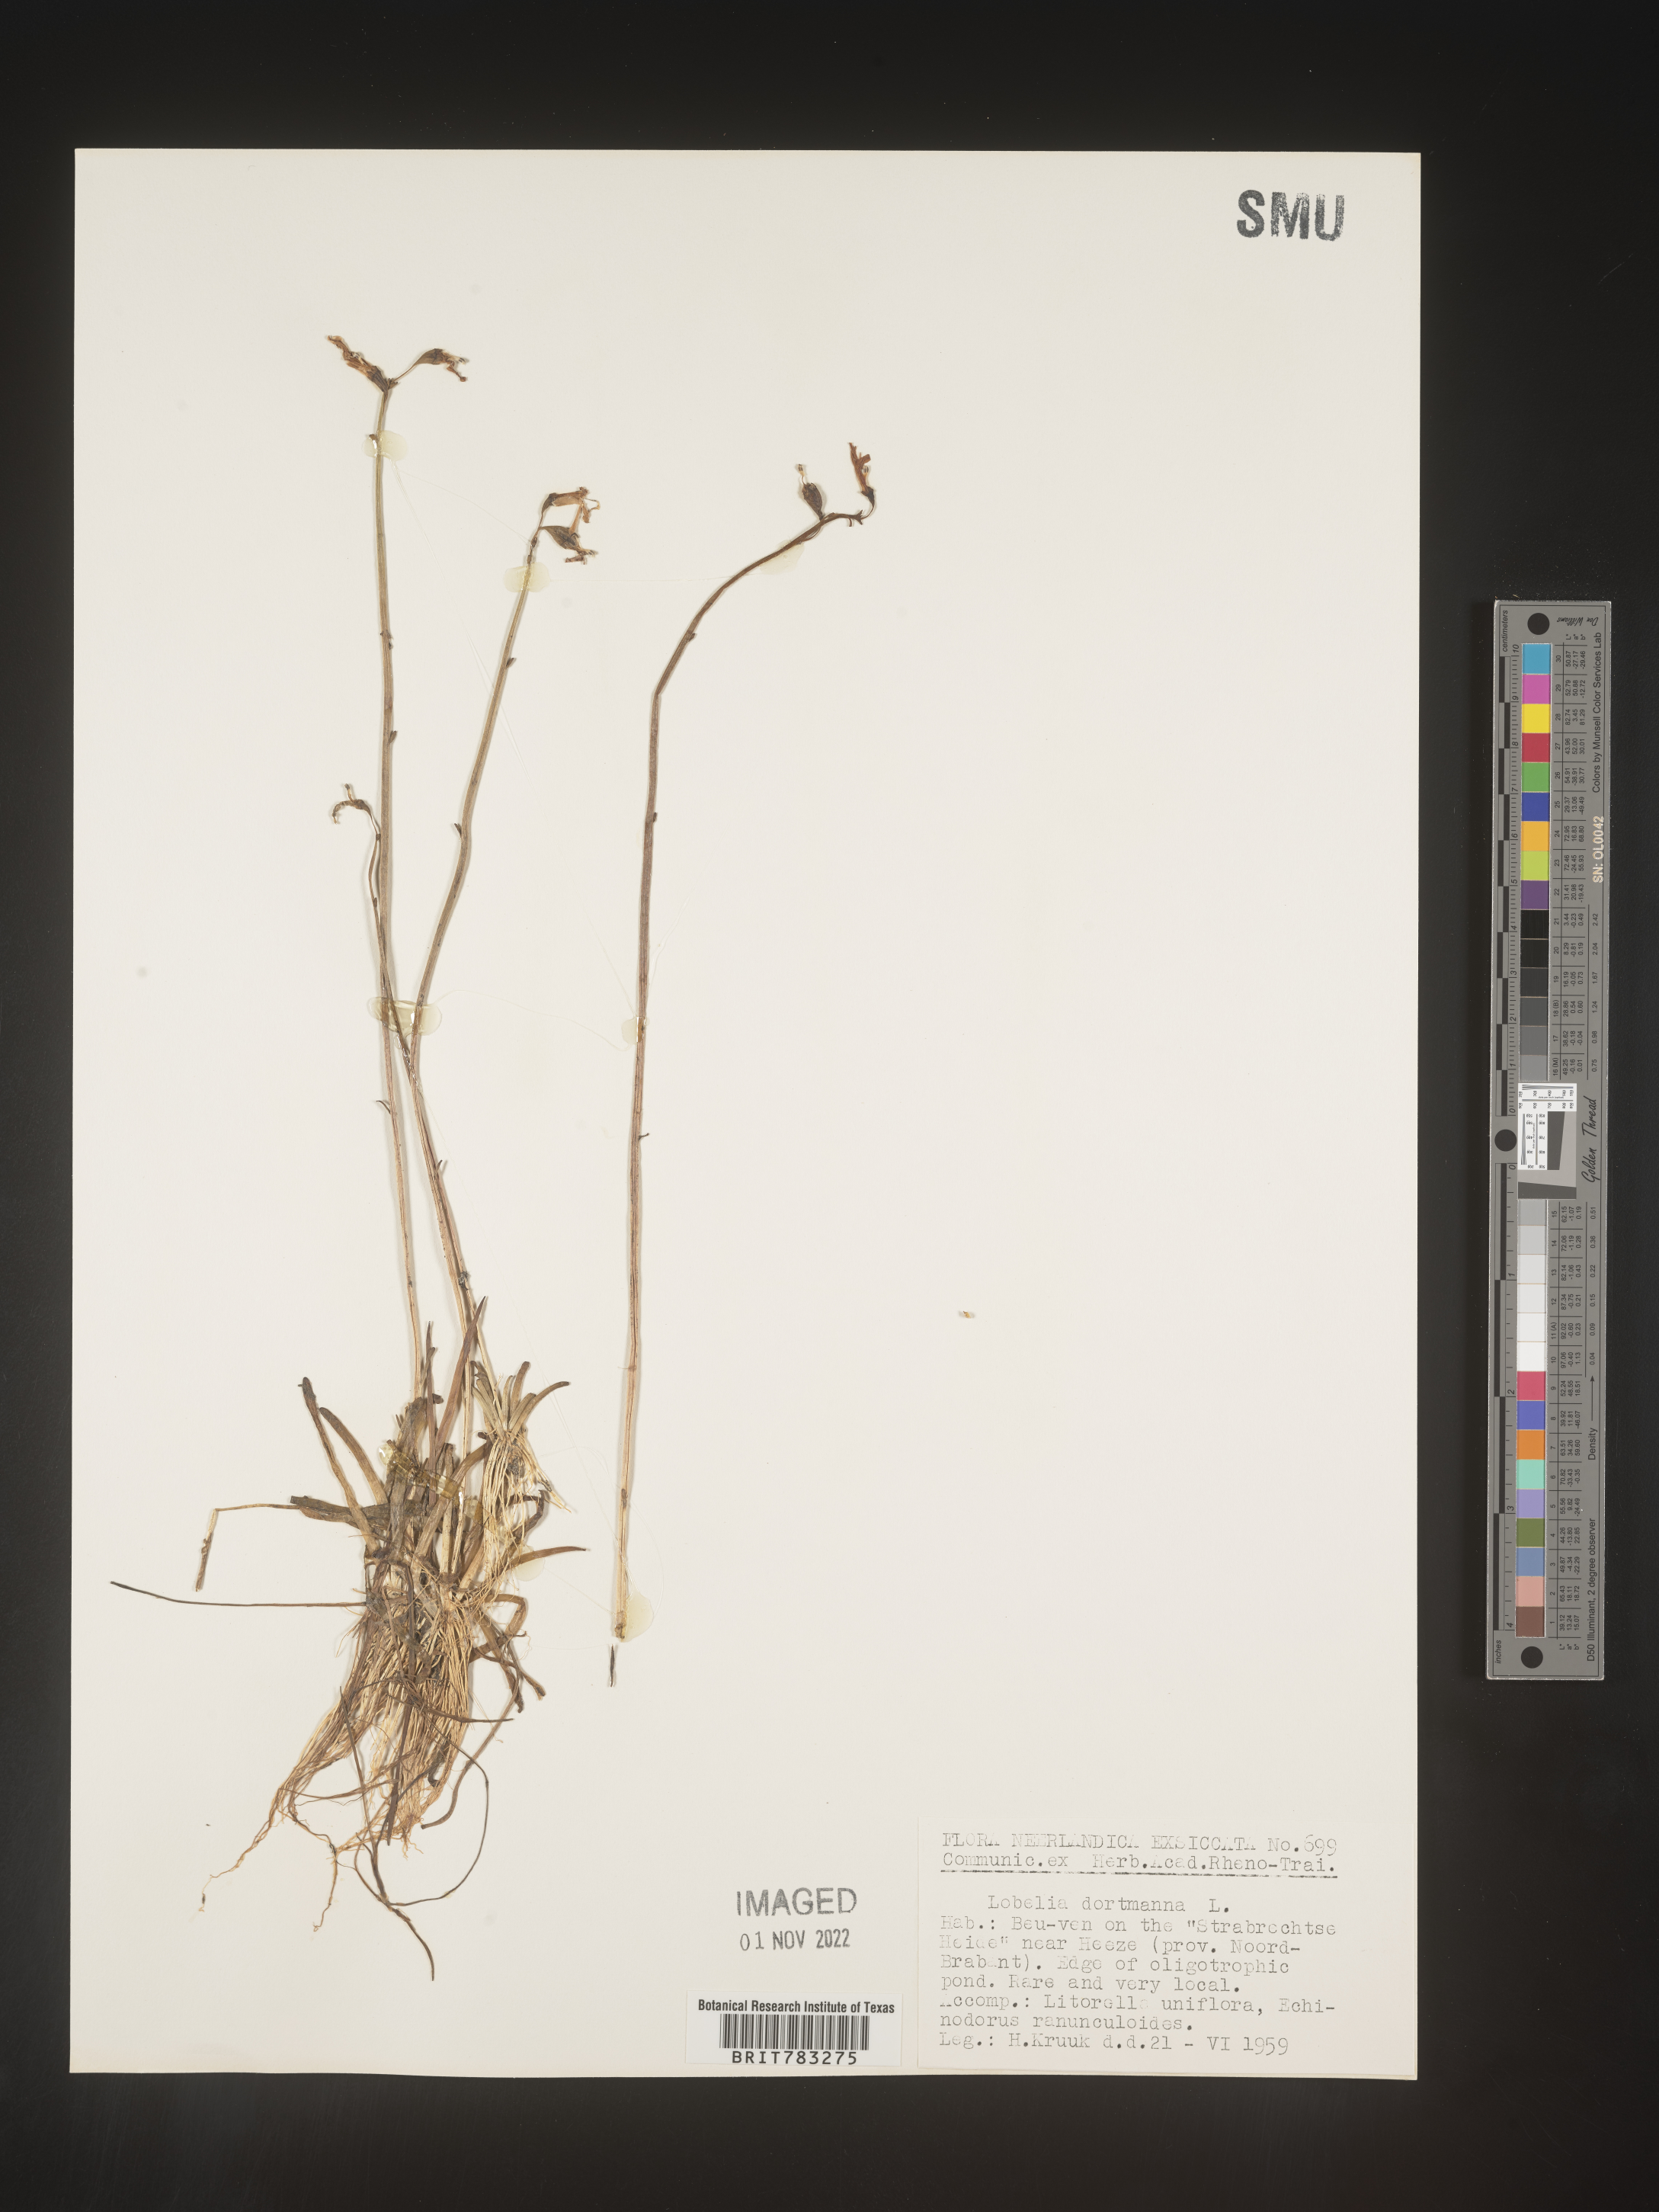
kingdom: Plantae
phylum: Tracheophyta
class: Magnoliopsida
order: Asterales
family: Campanulaceae
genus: Lobelia
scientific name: Lobelia
